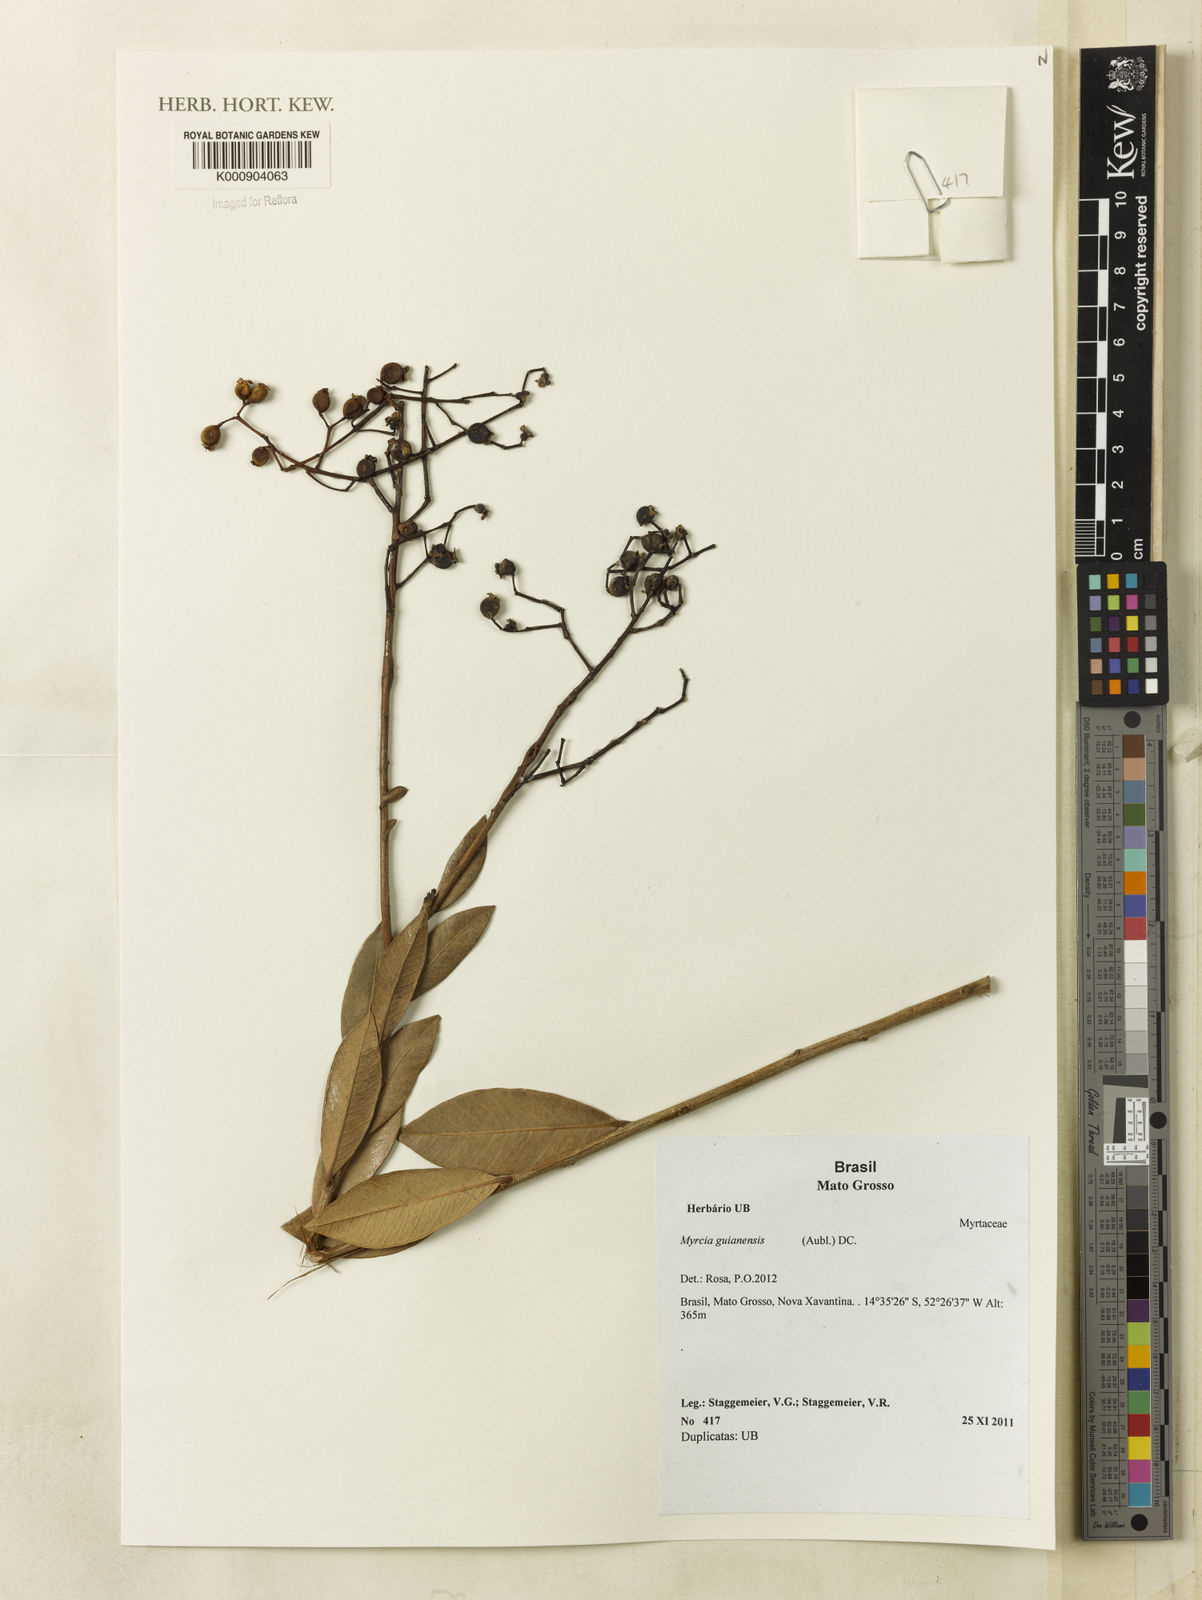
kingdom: Plantae
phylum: Tracheophyta
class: Magnoliopsida
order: Myrtales
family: Myrtaceae
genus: Myrcia
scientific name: Myrcia guianensis
